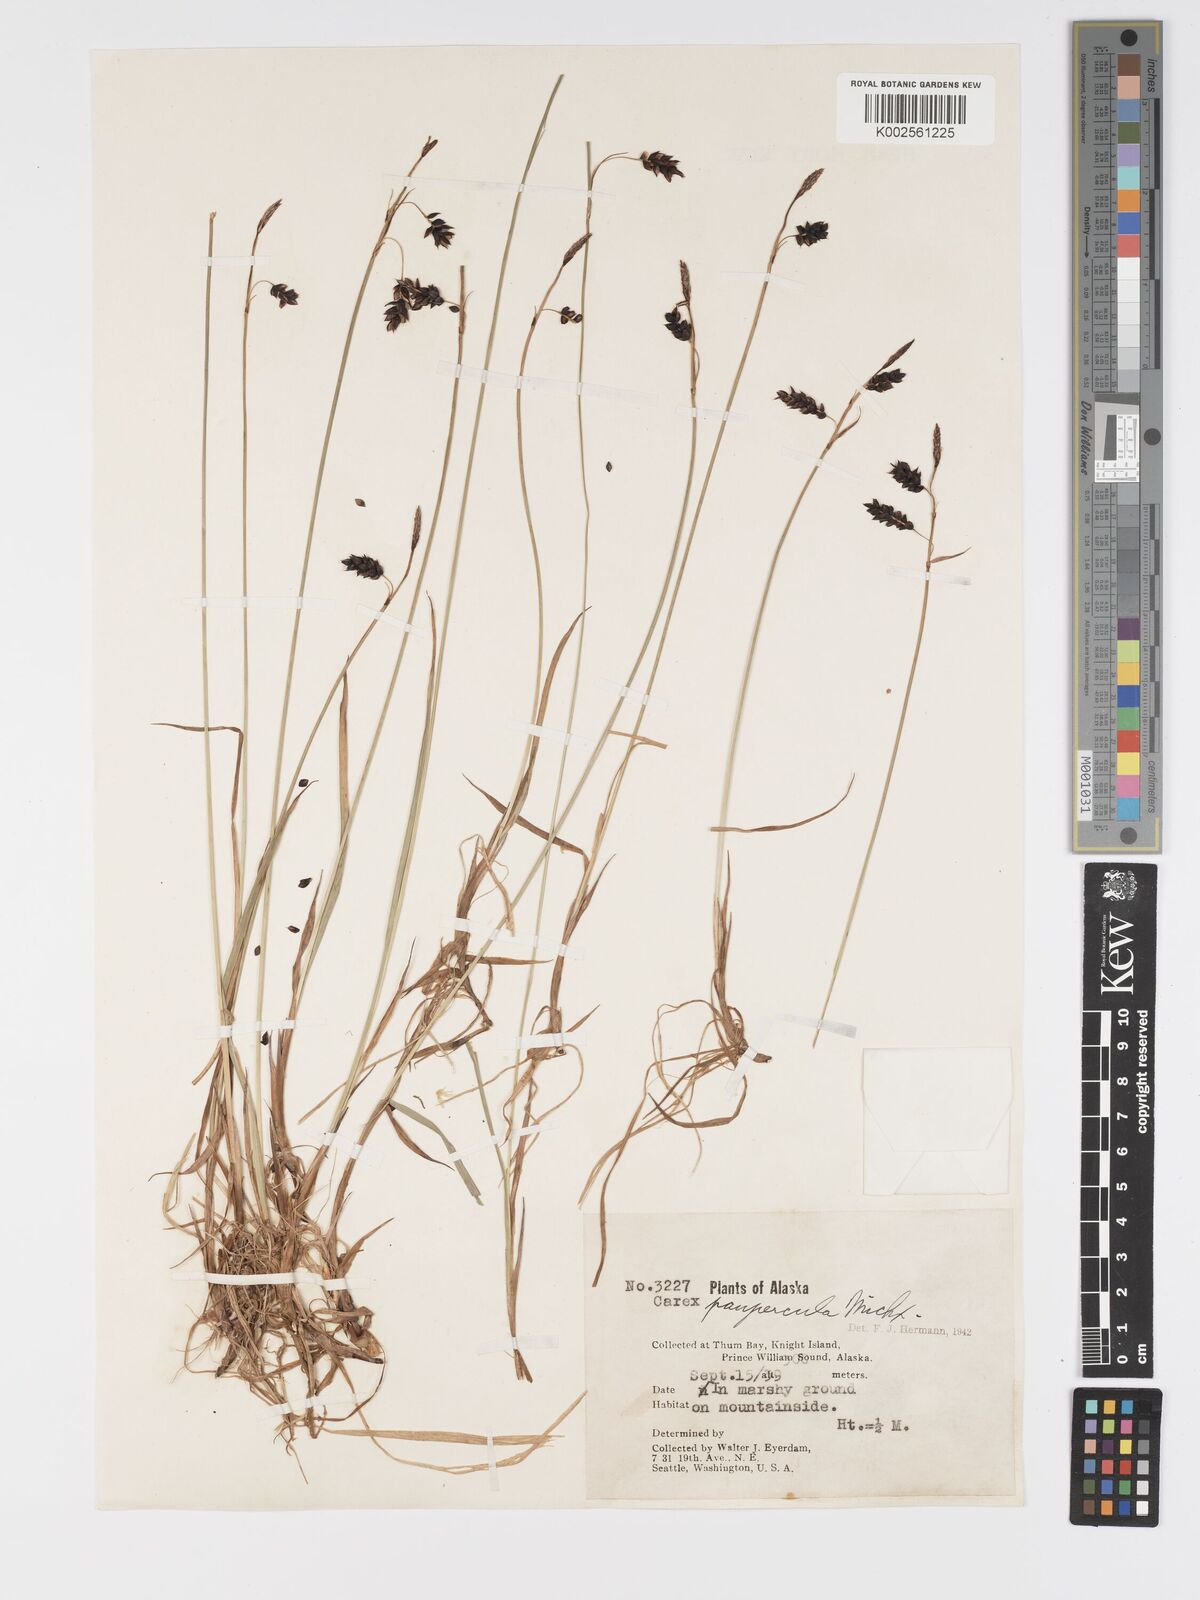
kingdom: Plantae
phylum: Tracheophyta
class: Liliopsida
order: Poales
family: Cyperaceae
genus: Carex
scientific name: Carex limosa
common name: Bog sedge
